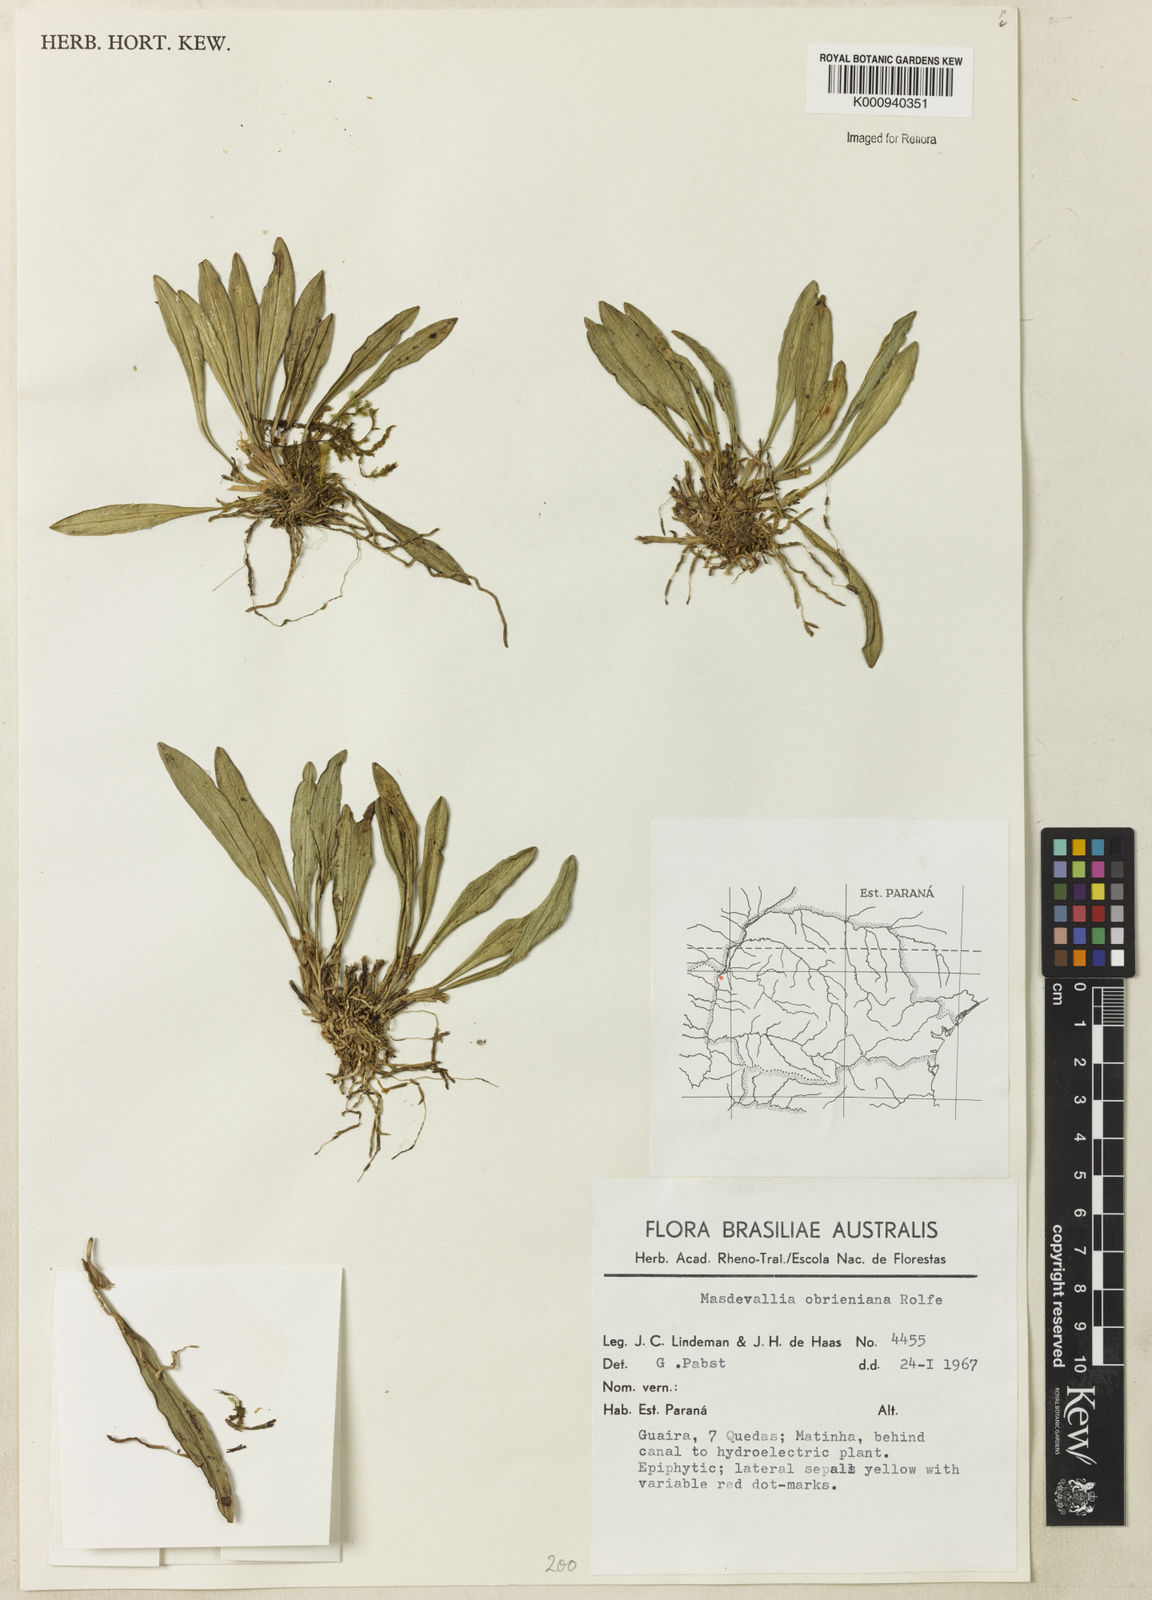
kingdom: Plantae
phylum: Tracheophyta
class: Liliopsida
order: Asparagales
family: Orchidaceae
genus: Dryadella
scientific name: Dryadella aviceps
